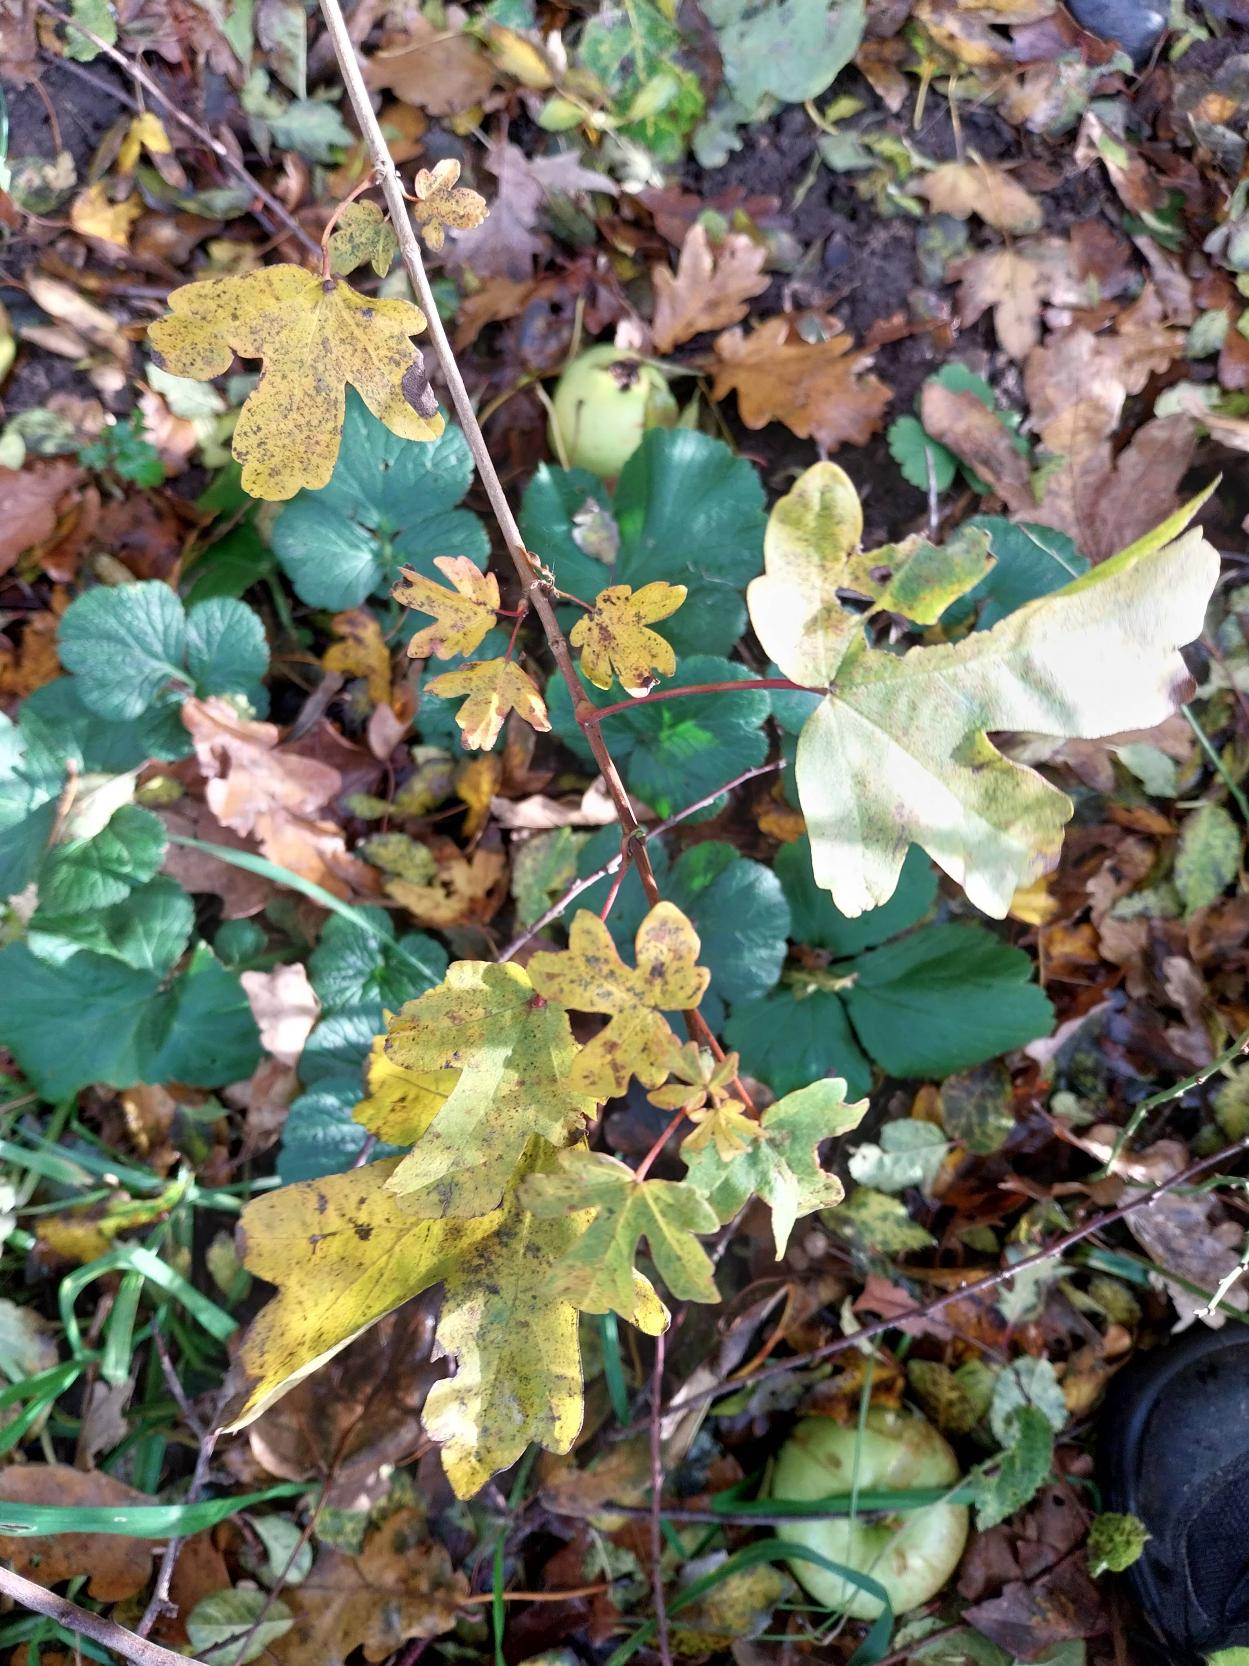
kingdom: Plantae
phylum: Tracheophyta
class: Magnoliopsida
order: Sapindales
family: Sapindaceae
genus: Acer
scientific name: Acer campestre
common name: Navr
